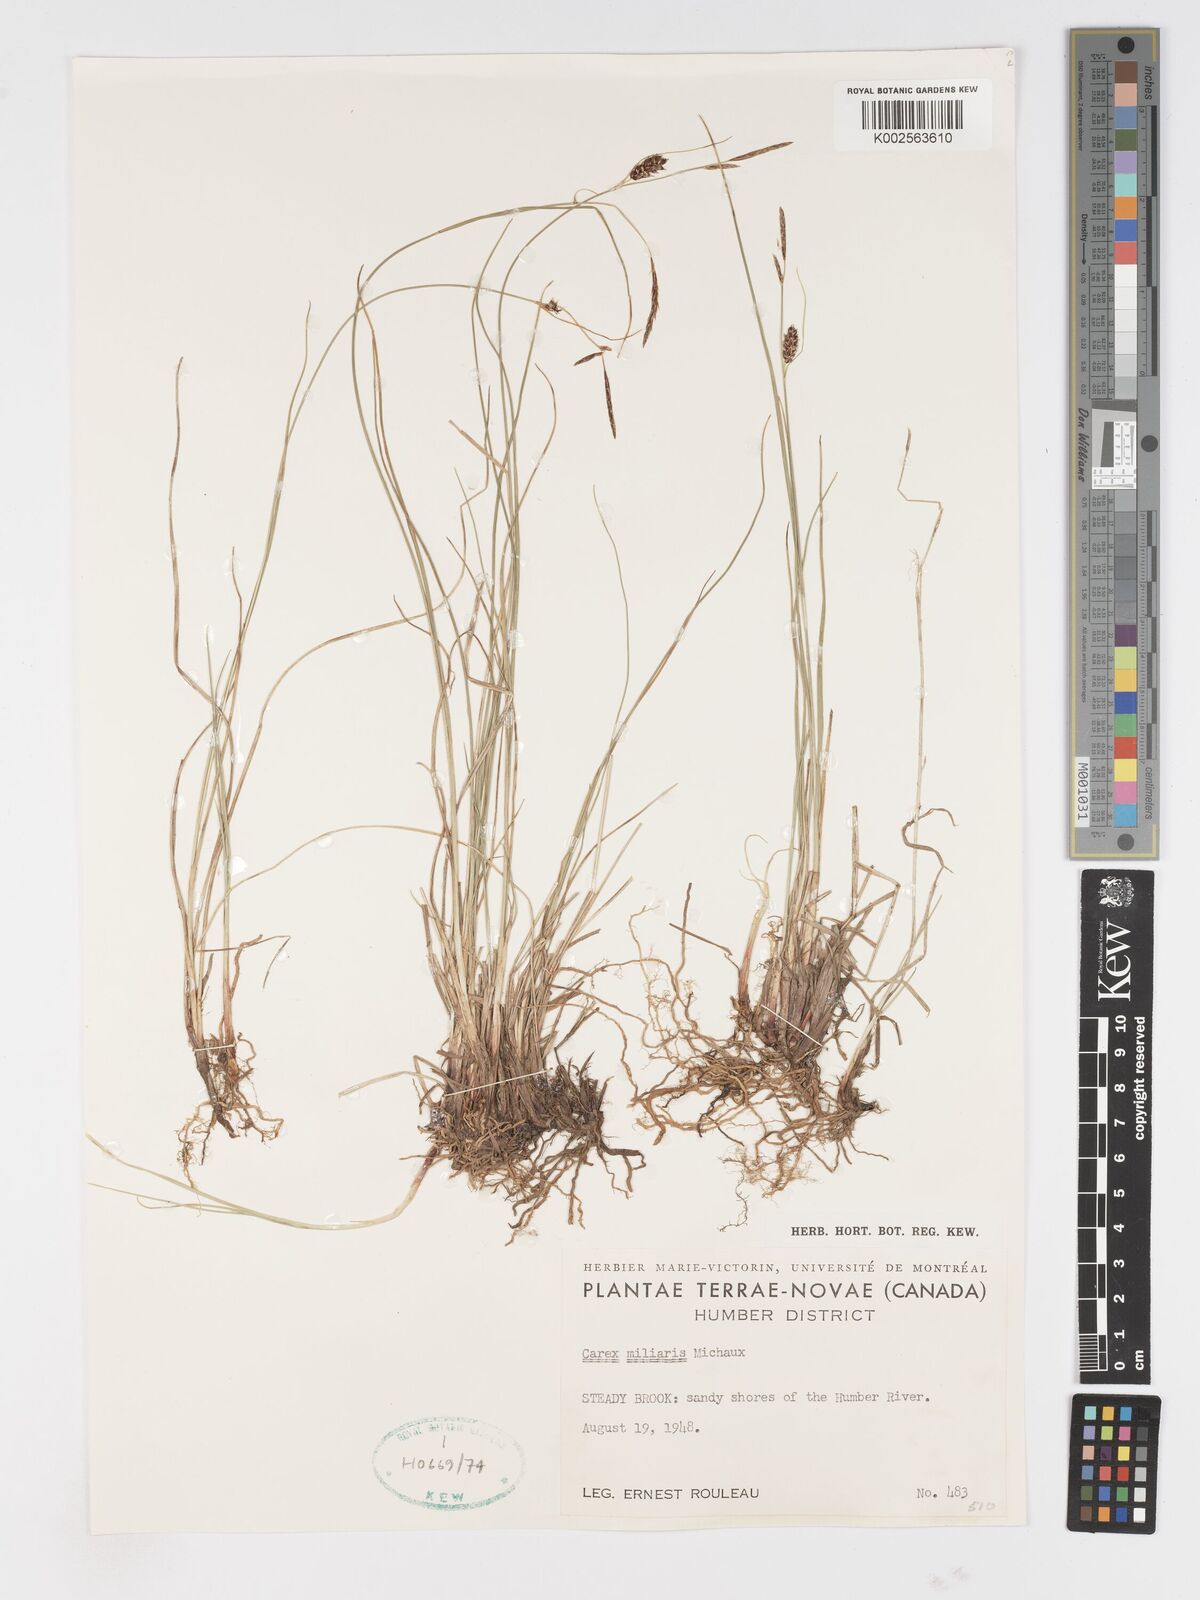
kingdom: Plantae
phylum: Tracheophyta
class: Liliopsida
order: Poales
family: Cyperaceae
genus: Carex
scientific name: Carex miliaris
